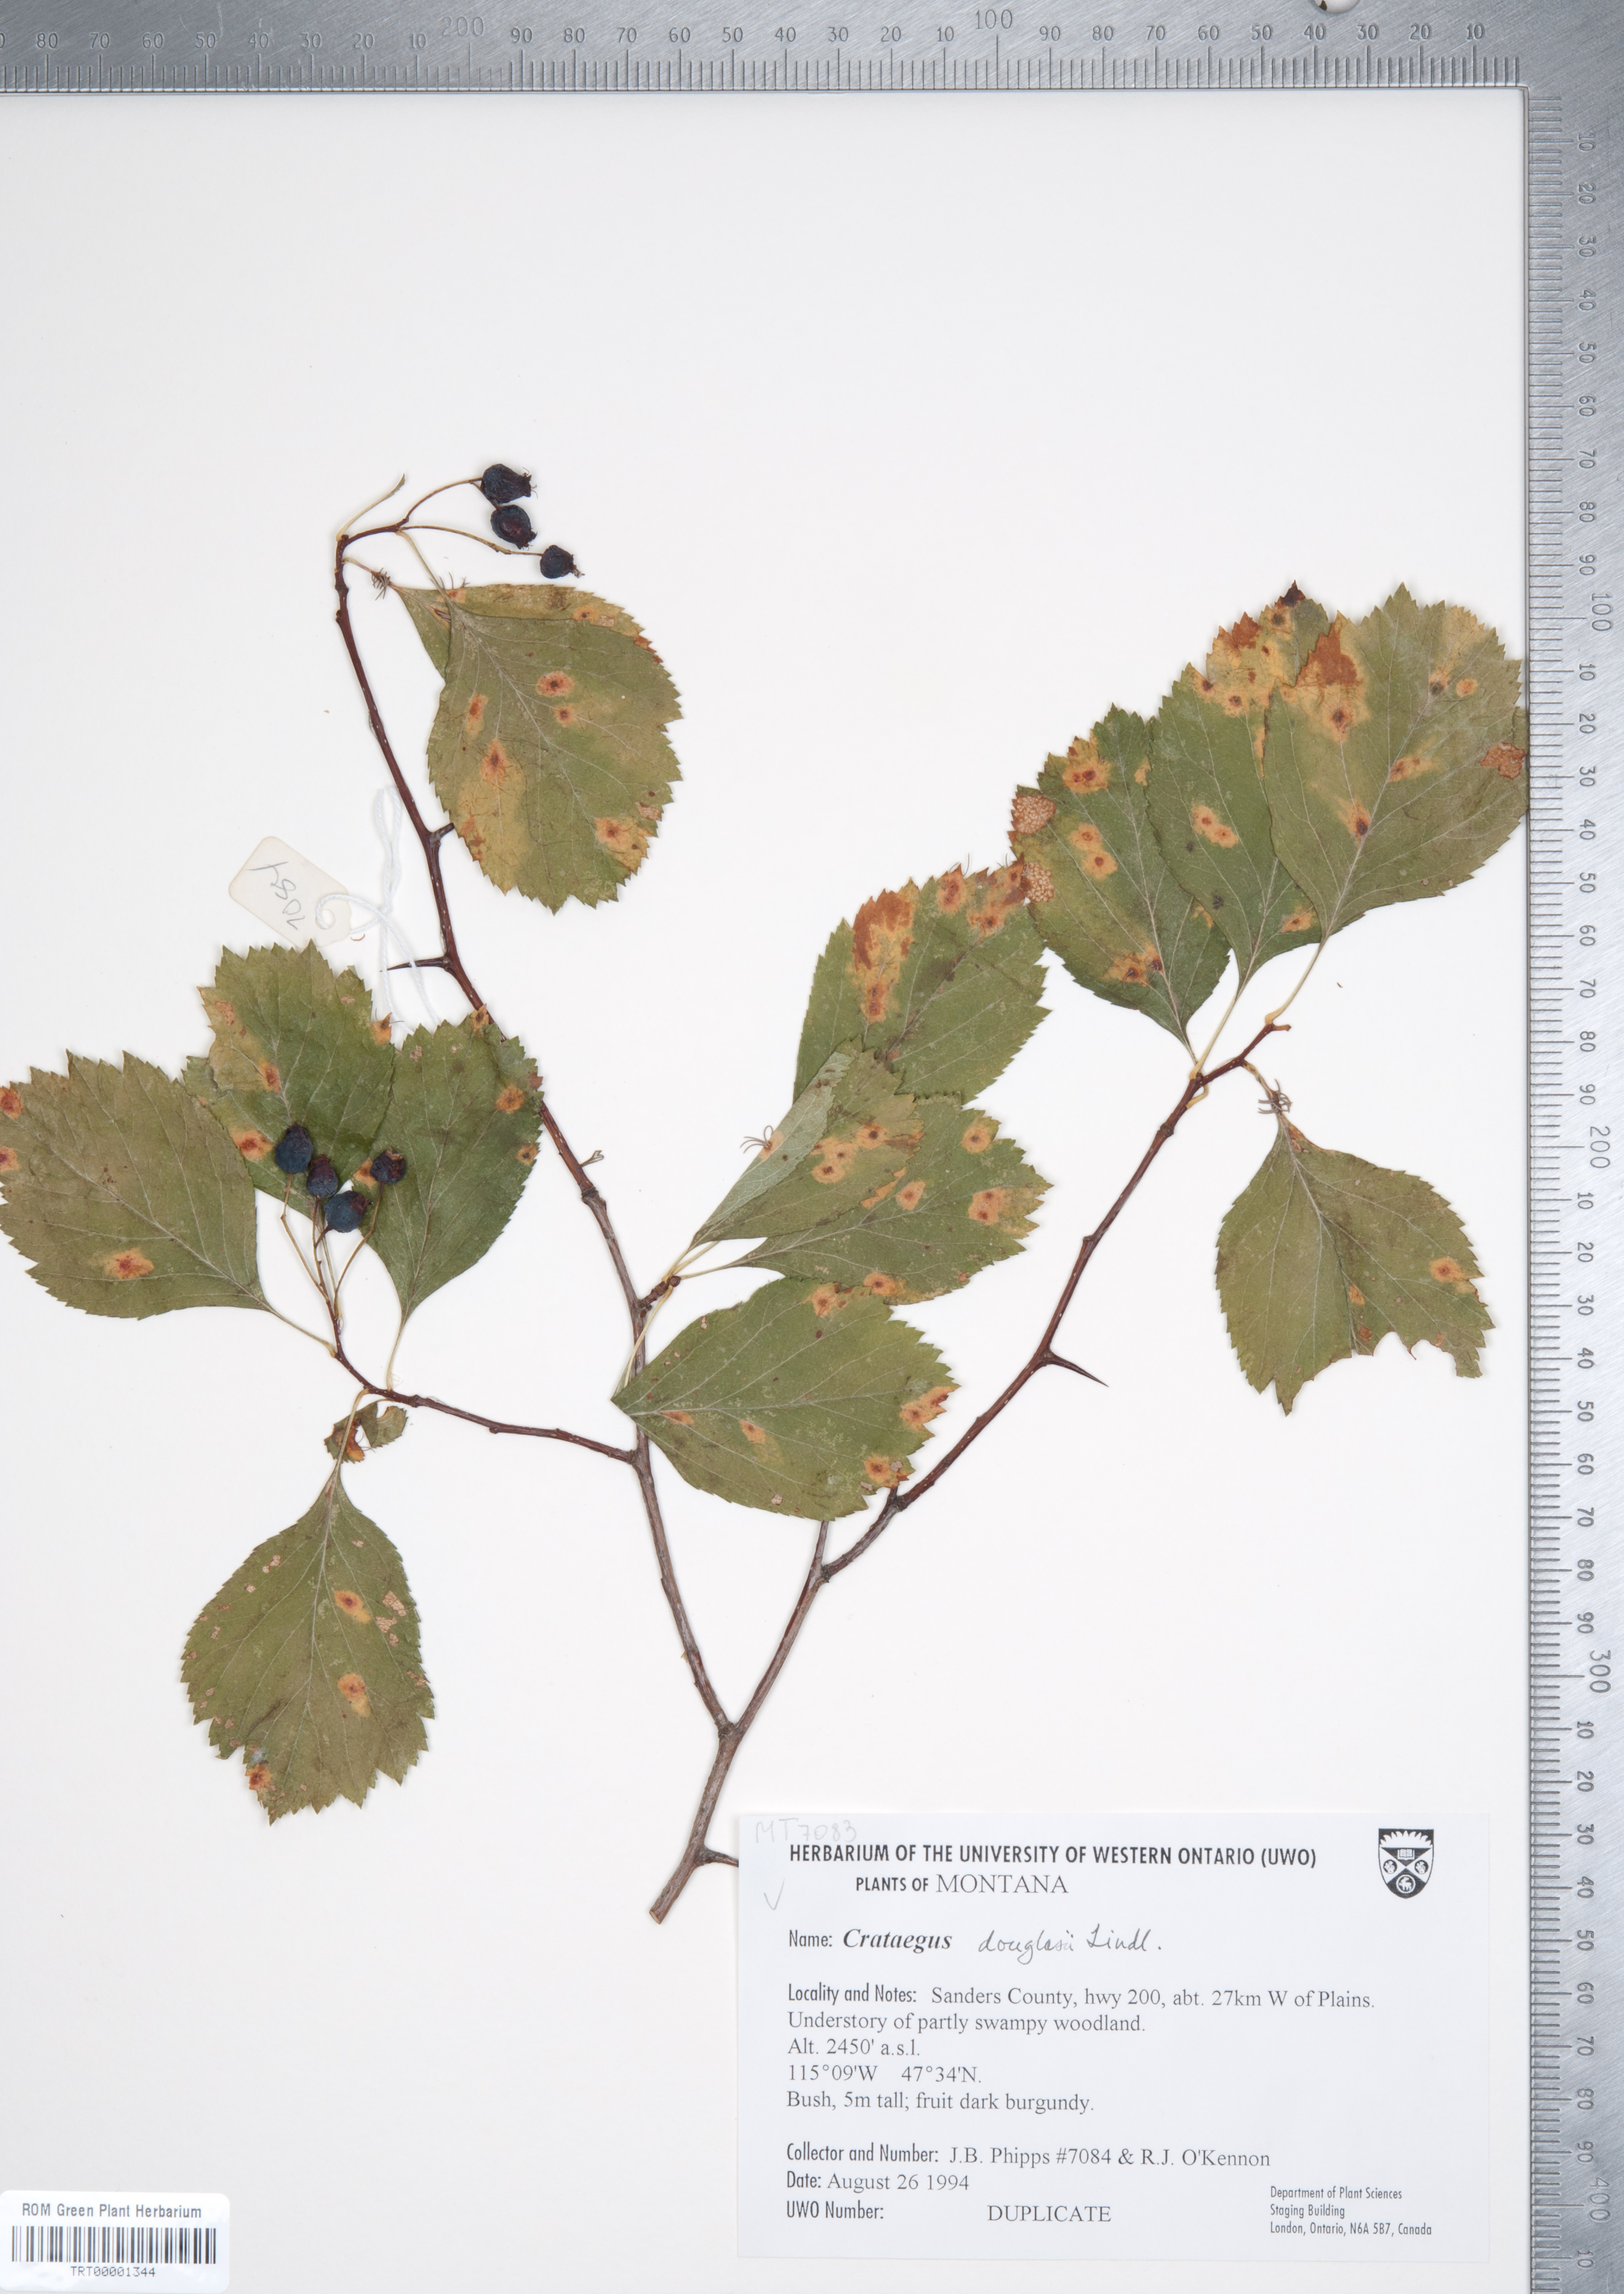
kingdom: Plantae
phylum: Tracheophyta
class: Magnoliopsida
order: Rosales
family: Rosaceae
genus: Crataegus
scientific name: Crataegus douglasii
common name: Black hawthorn
